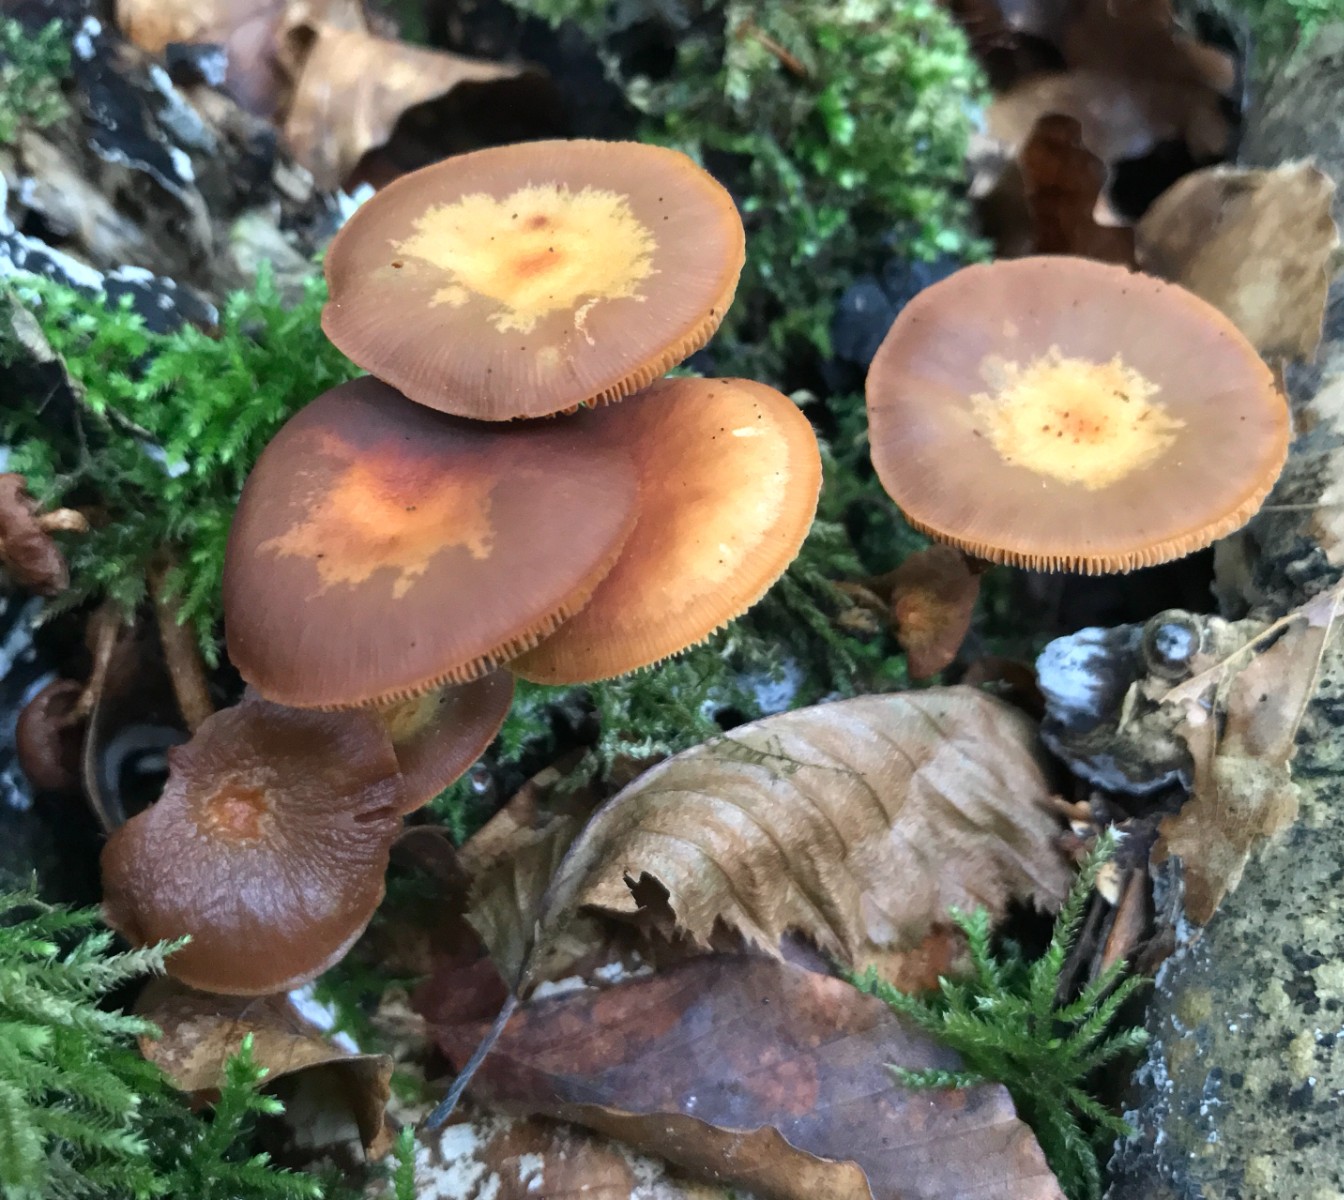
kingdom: Fungi
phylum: Basidiomycota
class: Agaricomycetes
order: Agaricales
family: Strophariaceae
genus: Kuehneromyces
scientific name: Kuehneromyces mutabilis
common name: foranderlig skælhat
